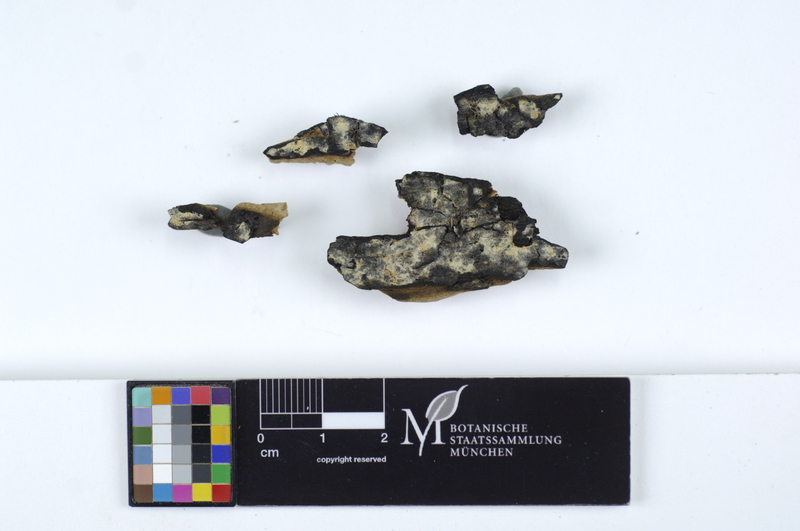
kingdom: Plantae
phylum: Tracheophyta
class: Magnoliopsida
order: Malpighiales
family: Salicaceae
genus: Salix
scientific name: Salix alba
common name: White willow
